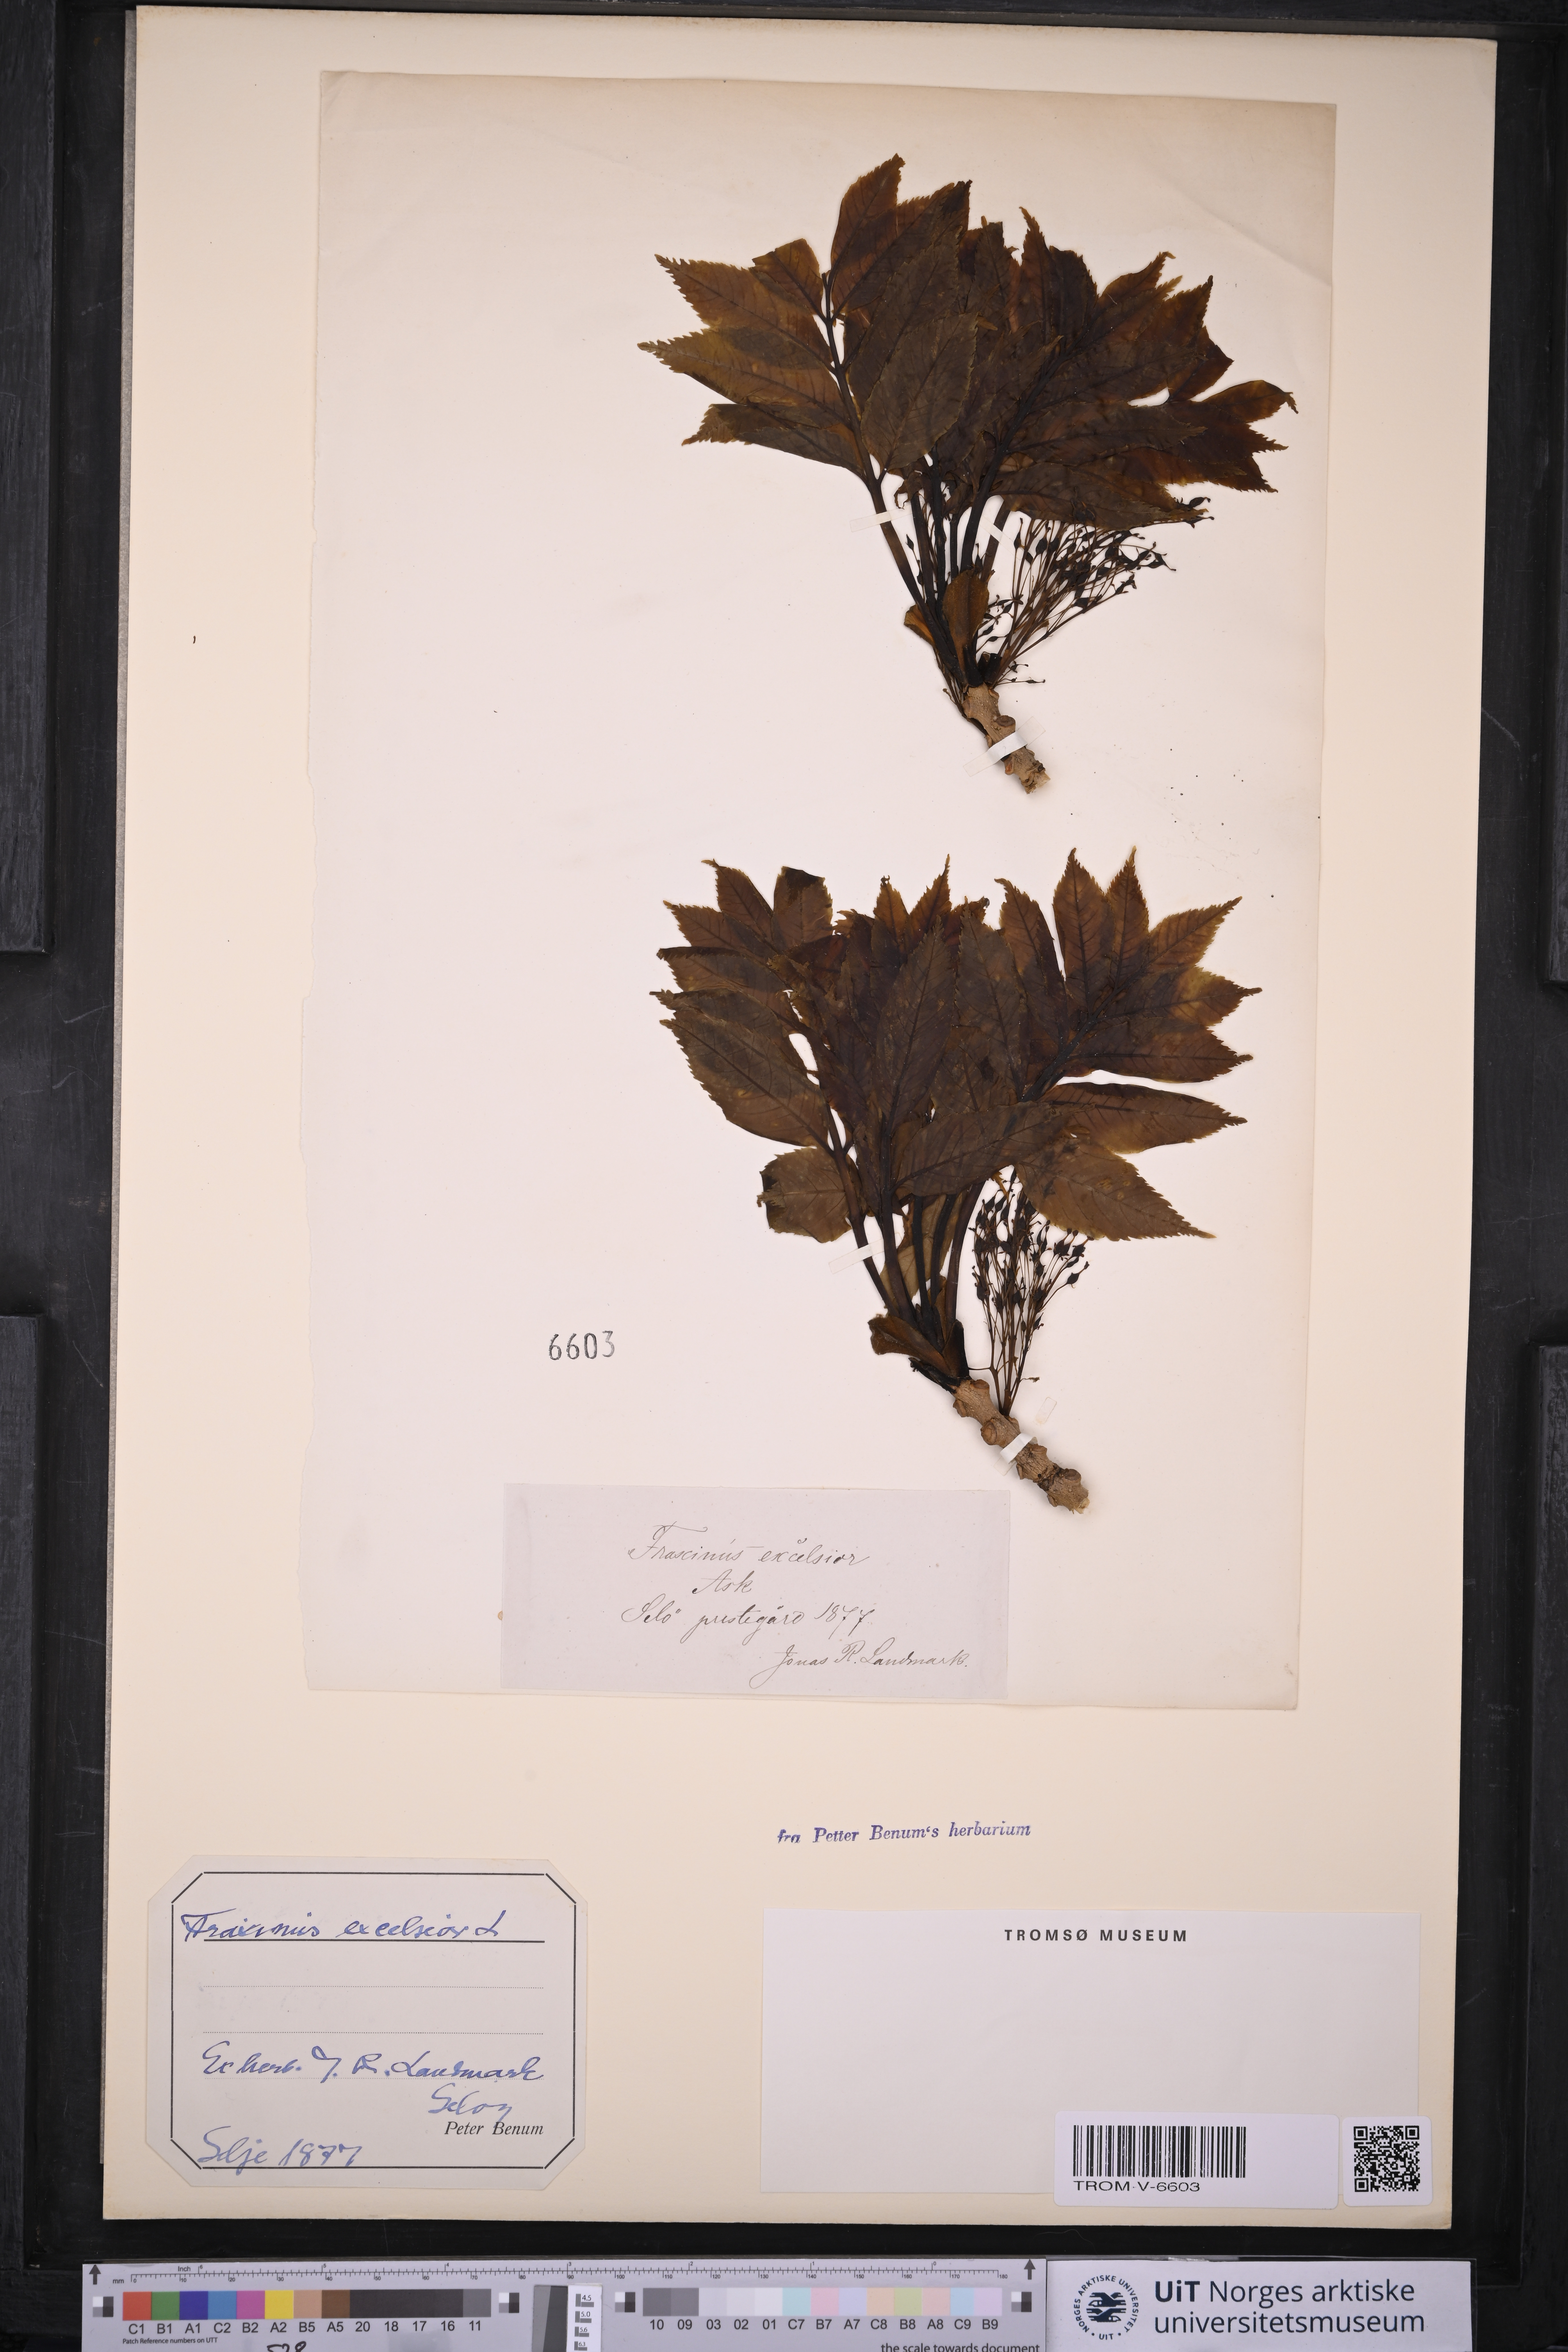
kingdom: Plantae
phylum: Tracheophyta
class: Magnoliopsida
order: Lamiales
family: Oleaceae
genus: Fraxinus
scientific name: Fraxinus excelsior
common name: European ash
